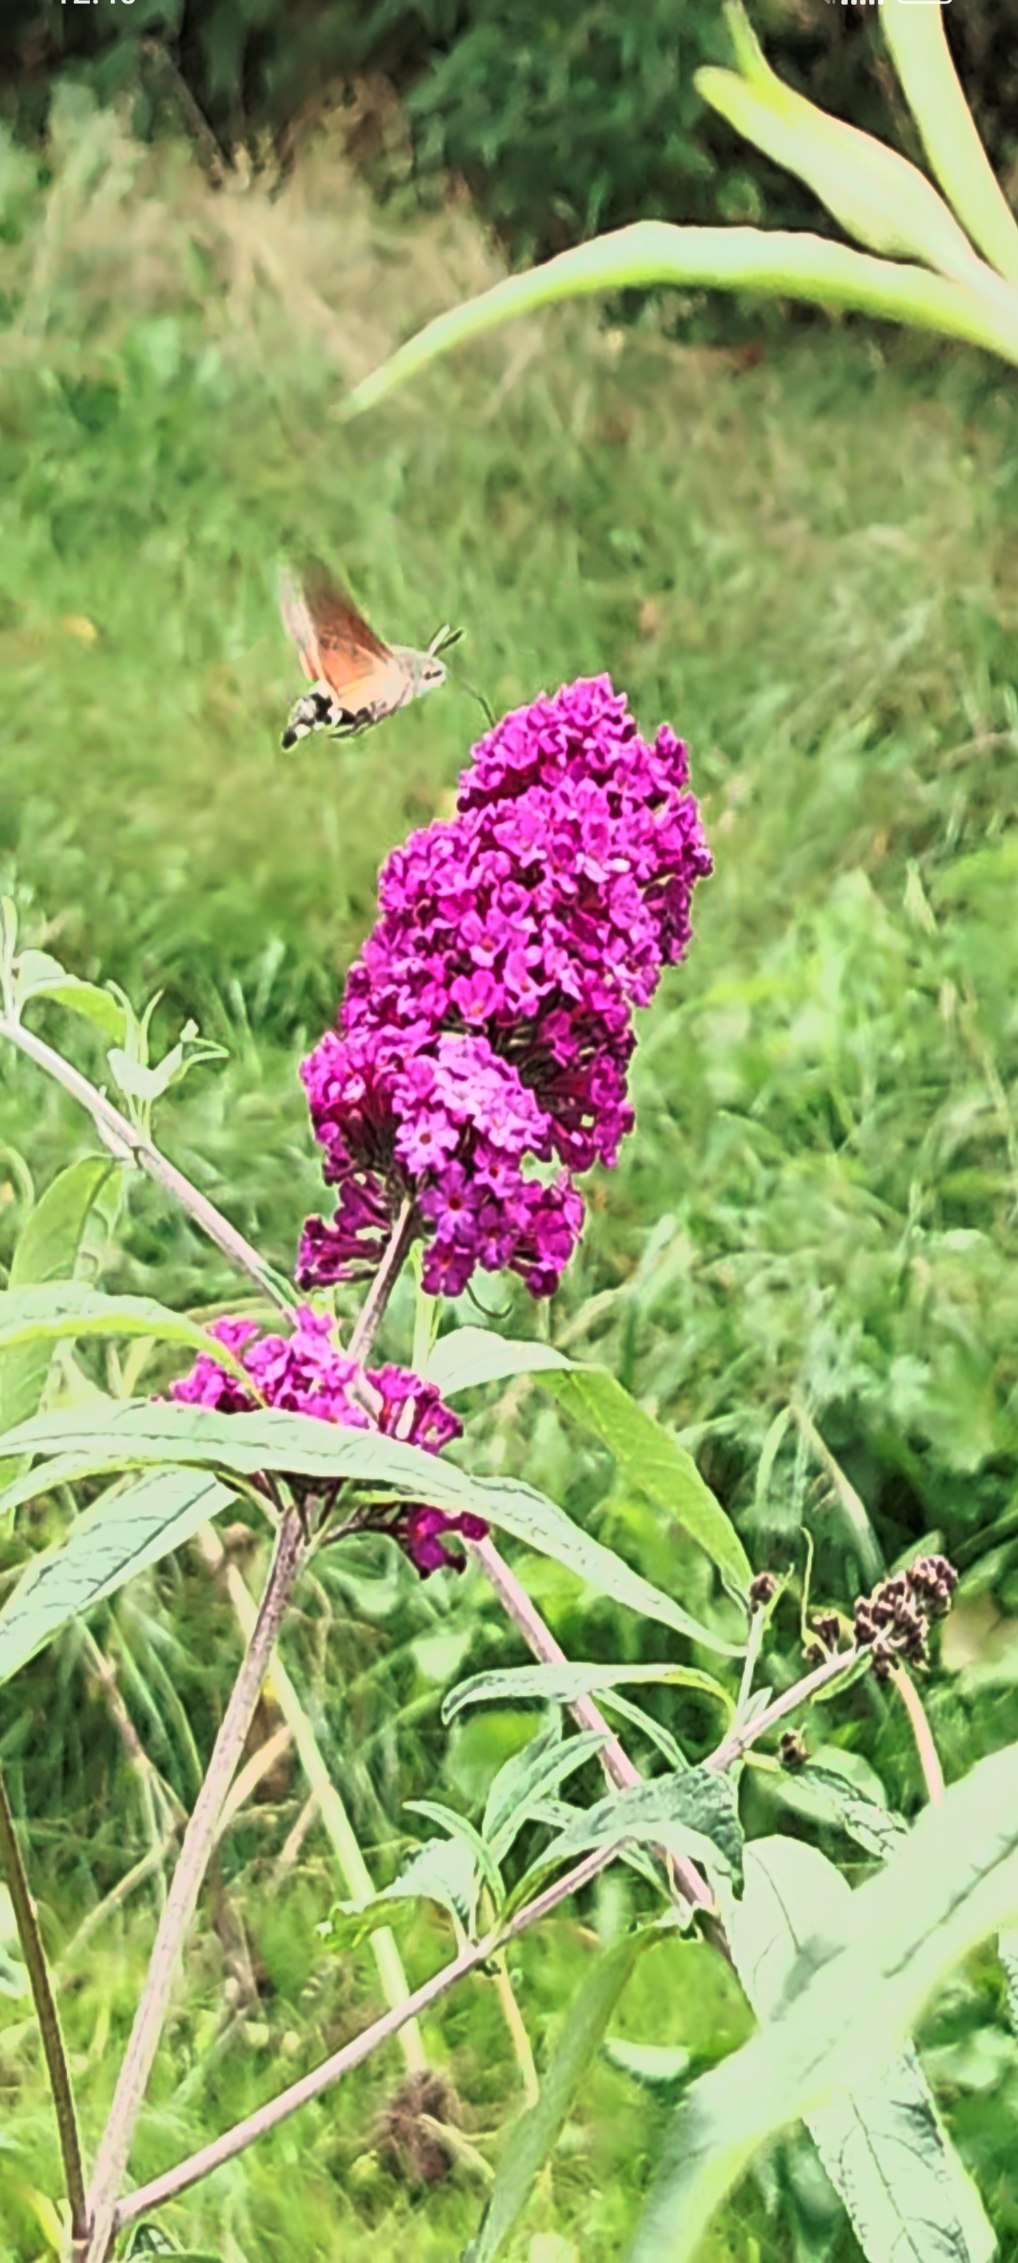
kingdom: Animalia
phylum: Arthropoda
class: Insecta
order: Lepidoptera
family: Sphingidae
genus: Macroglossum
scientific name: Macroglossum stellatarum
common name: Duehale
